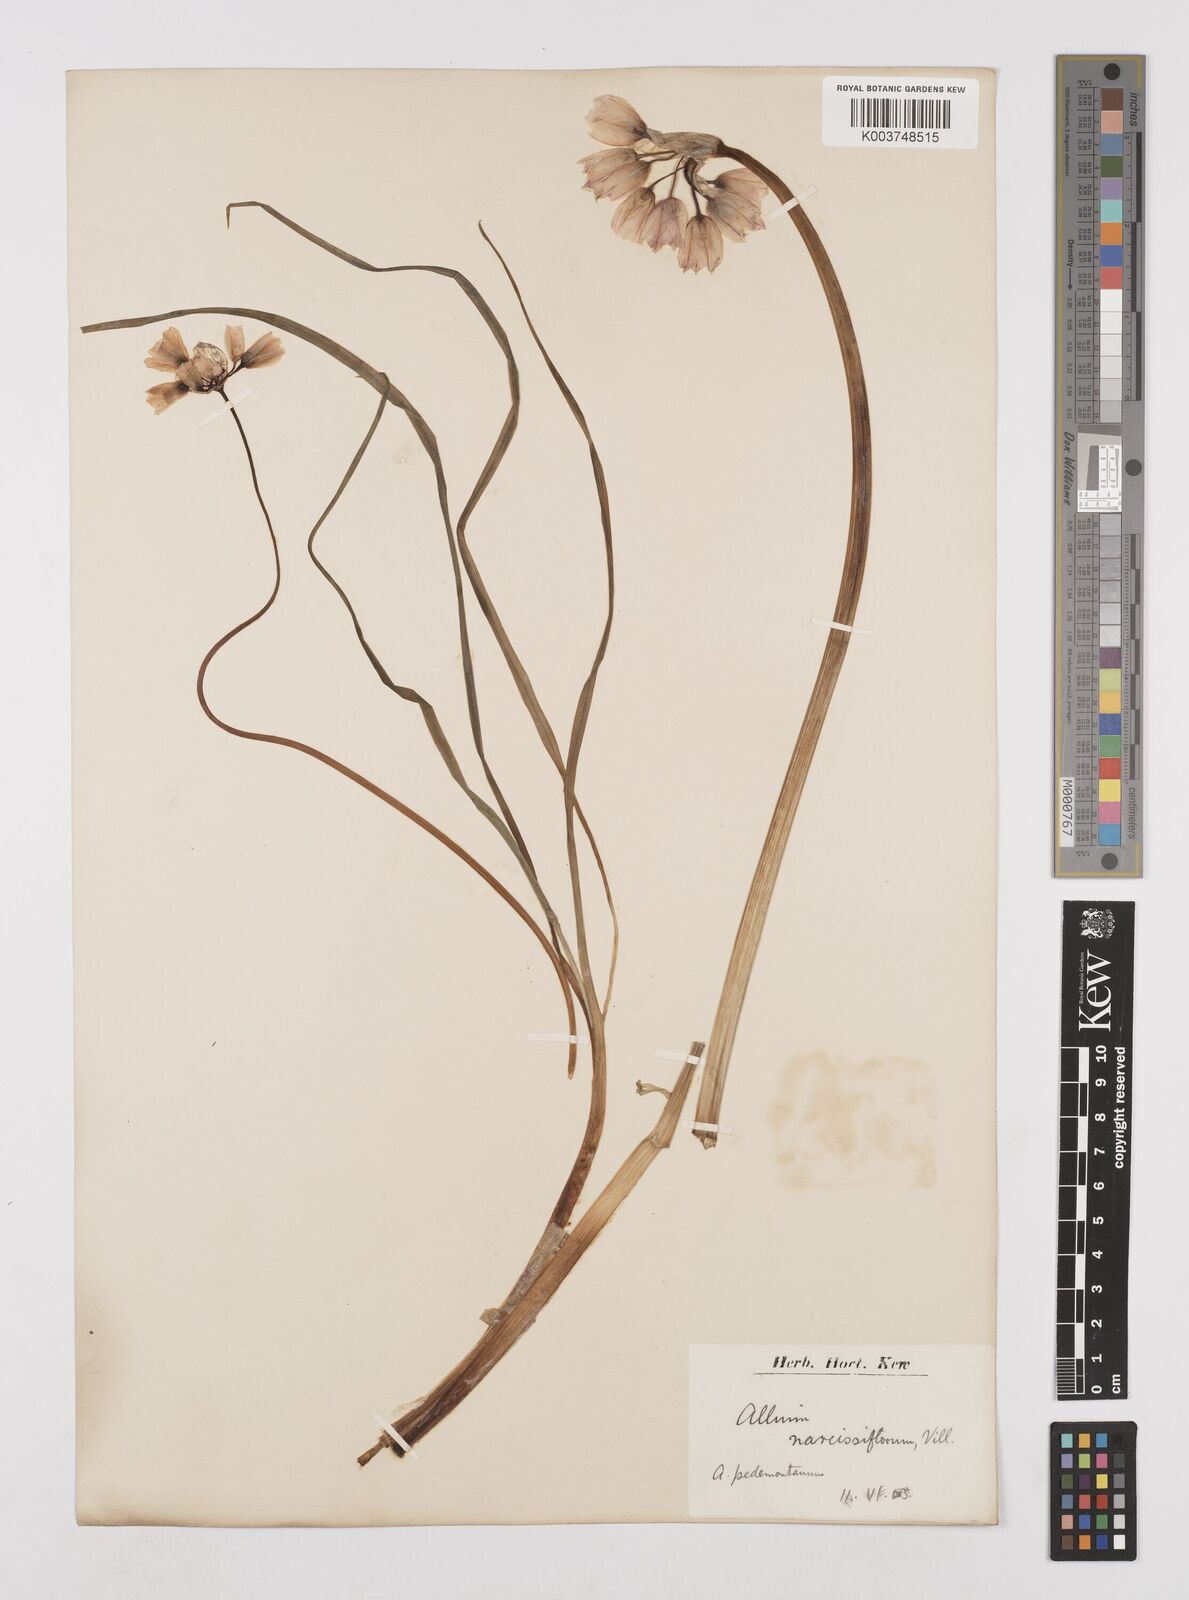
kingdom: Plantae
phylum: Tracheophyta
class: Liliopsida
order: Asparagales
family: Amaryllidaceae
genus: Allium
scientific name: Allium narcissiflorum
